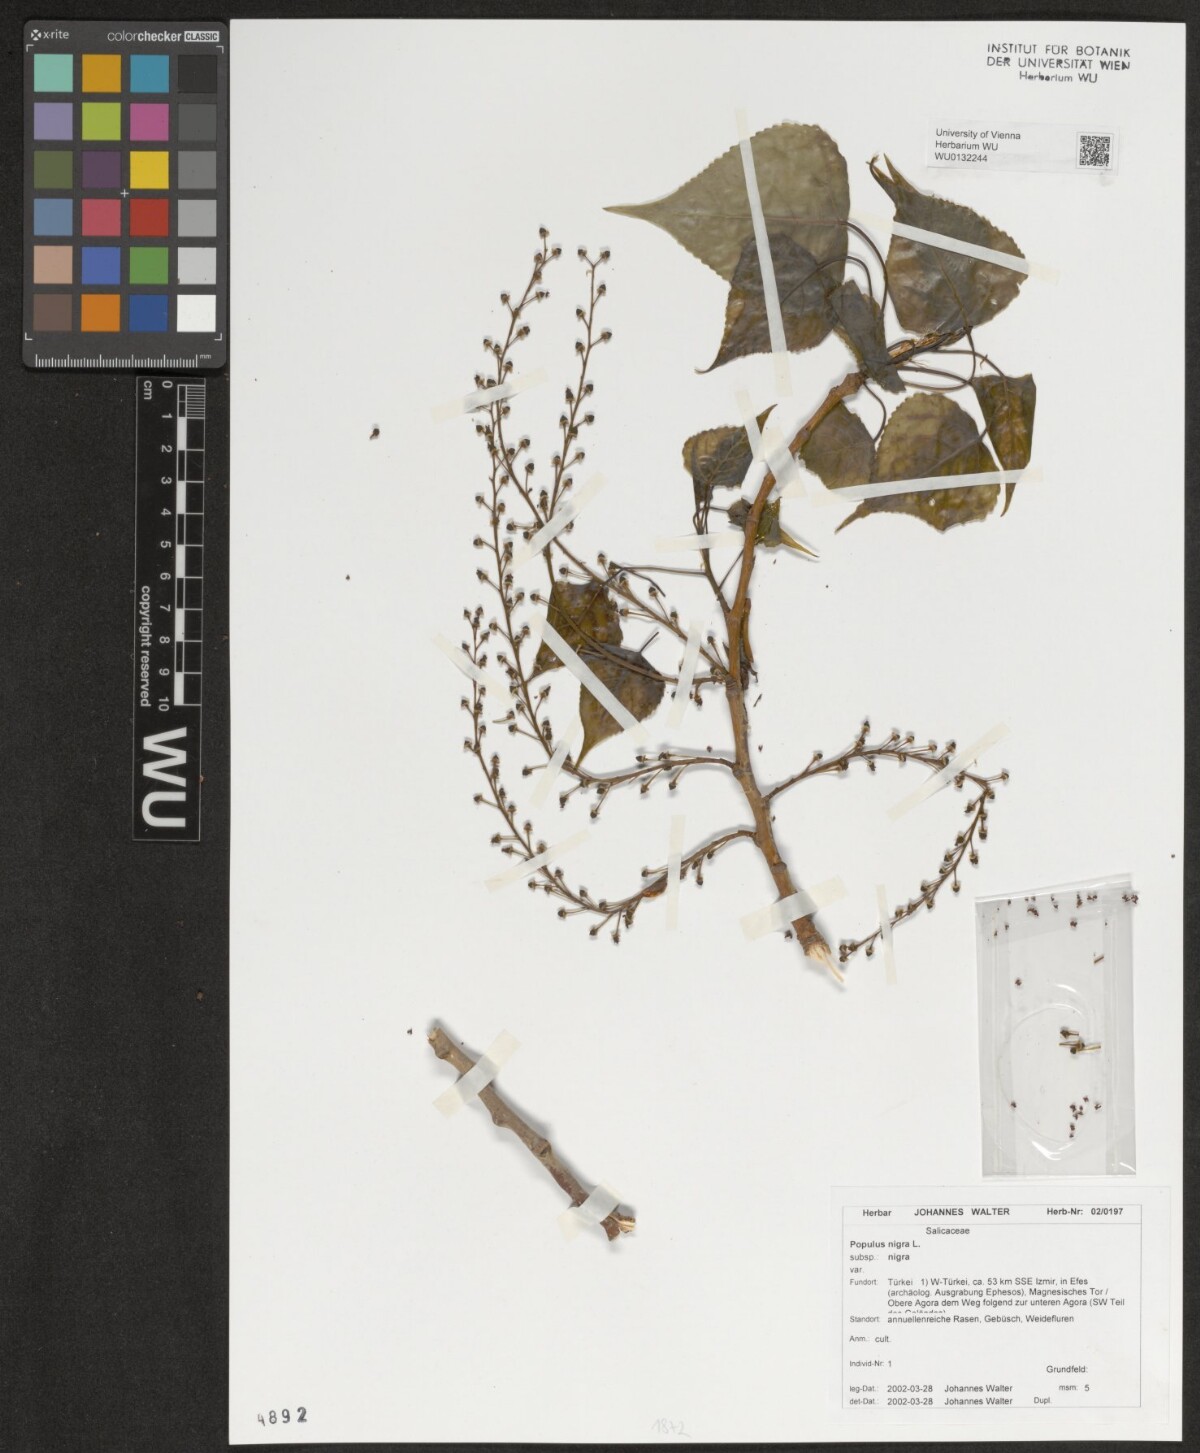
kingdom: Plantae
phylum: Tracheophyta
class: Magnoliopsida
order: Malpighiales
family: Salicaceae
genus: Populus
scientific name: Populus nigra
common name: Black poplar
